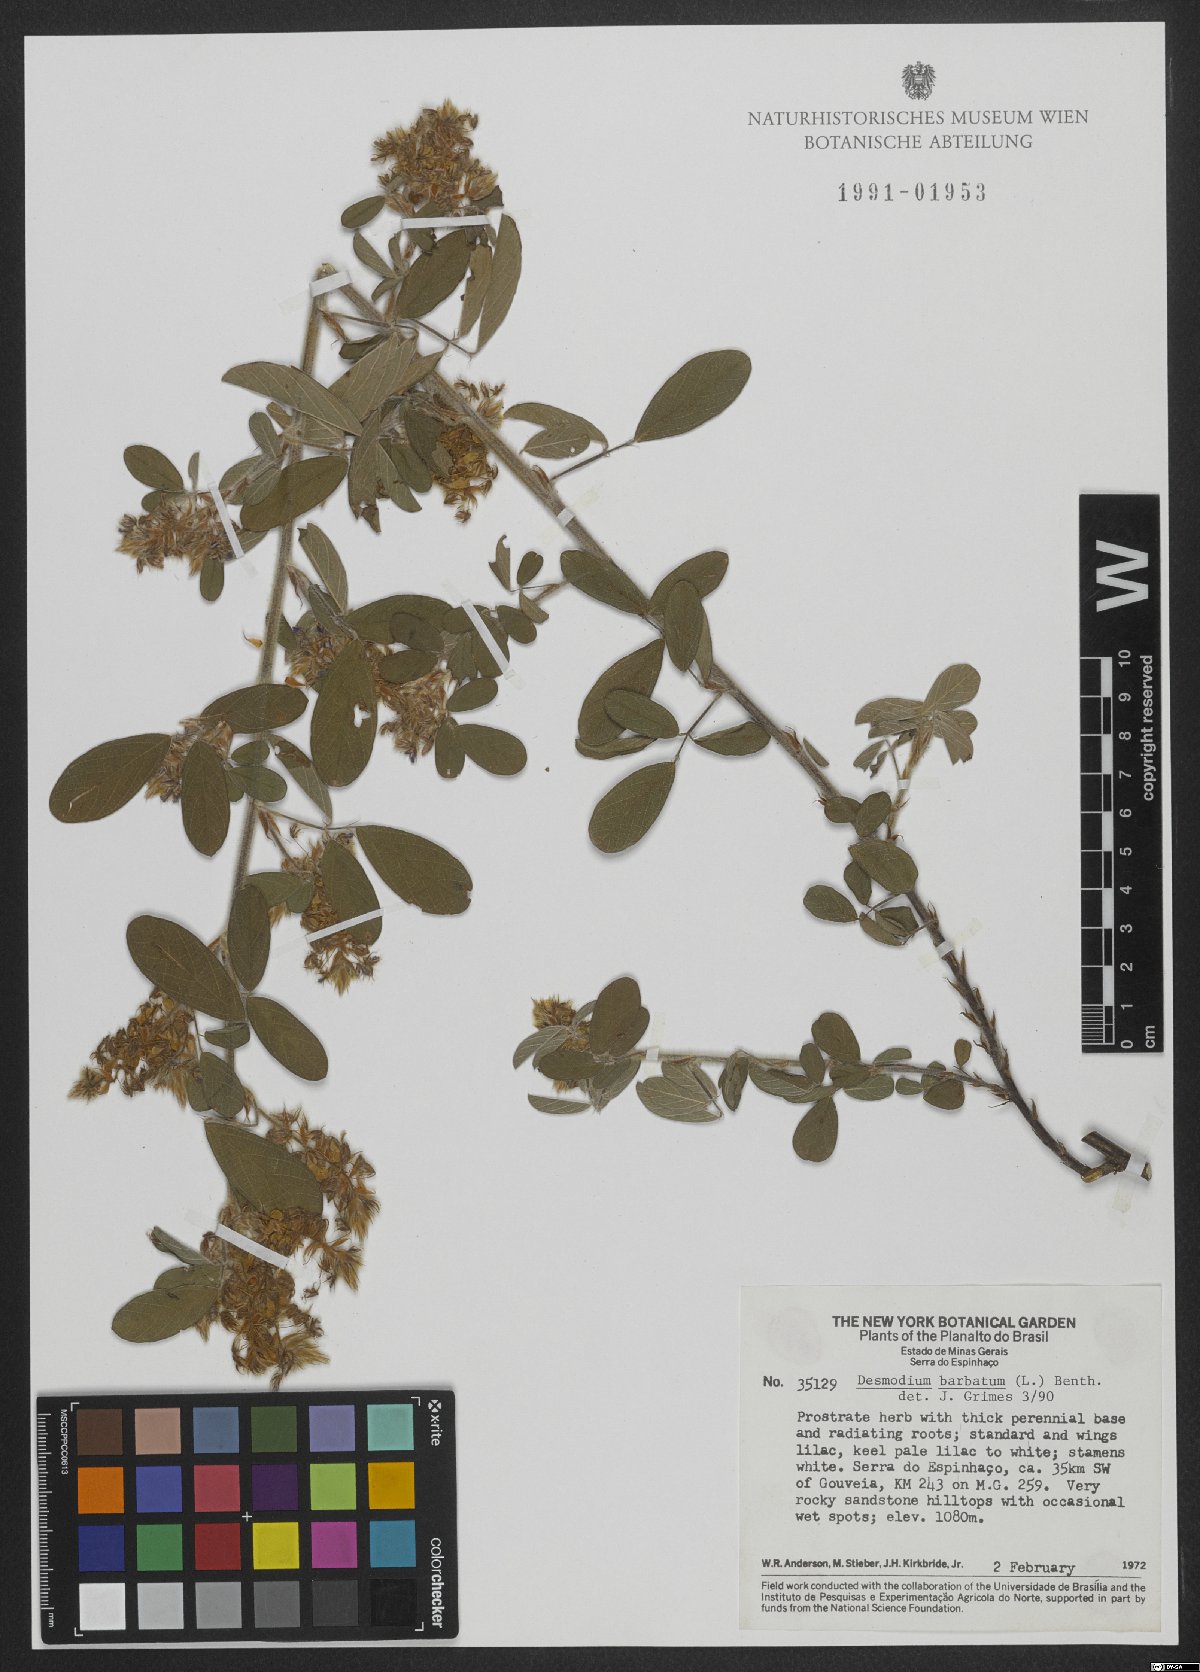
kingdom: Plantae
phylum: Tracheophyta
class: Magnoliopsida
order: Fabales
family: Fabaceae
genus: Grona
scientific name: Grona barbata
